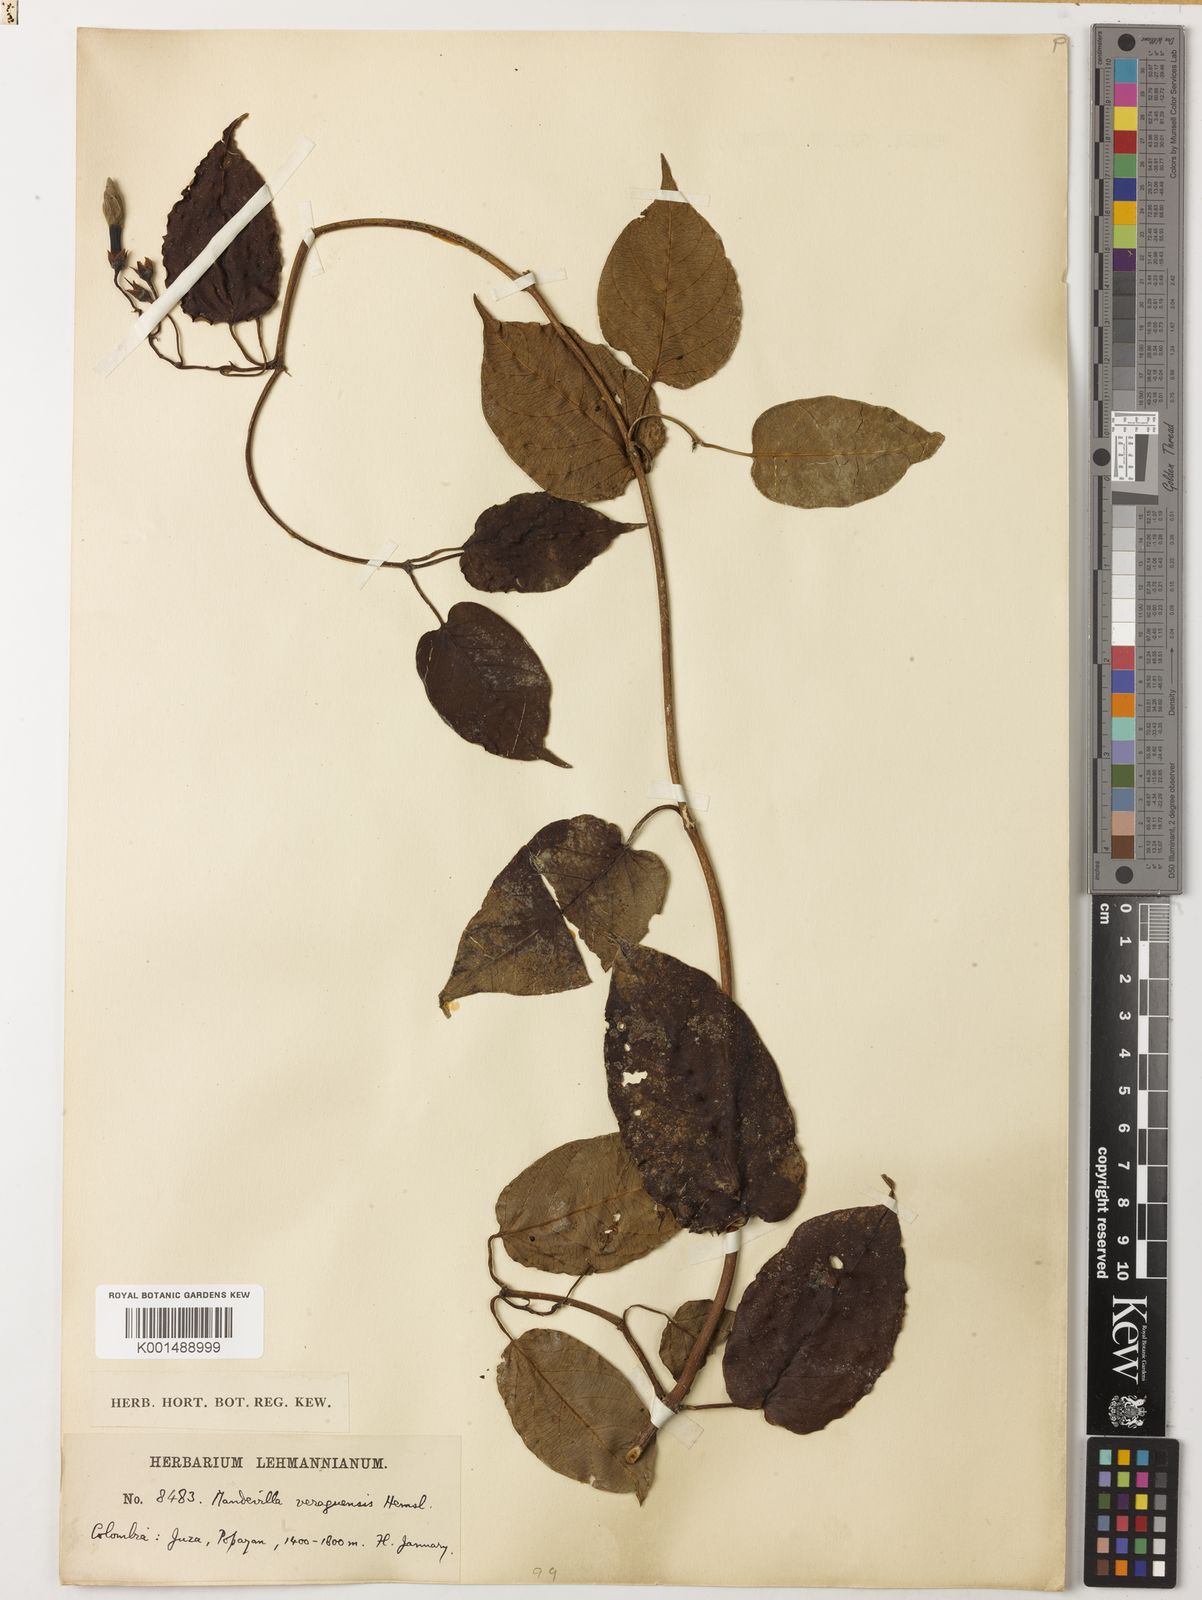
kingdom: Plantae
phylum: Tracheophyta
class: Magnoliopsida
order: Gentianales
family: Apocynaceae
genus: Mandevilla
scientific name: Mandevilla veraguasensis
